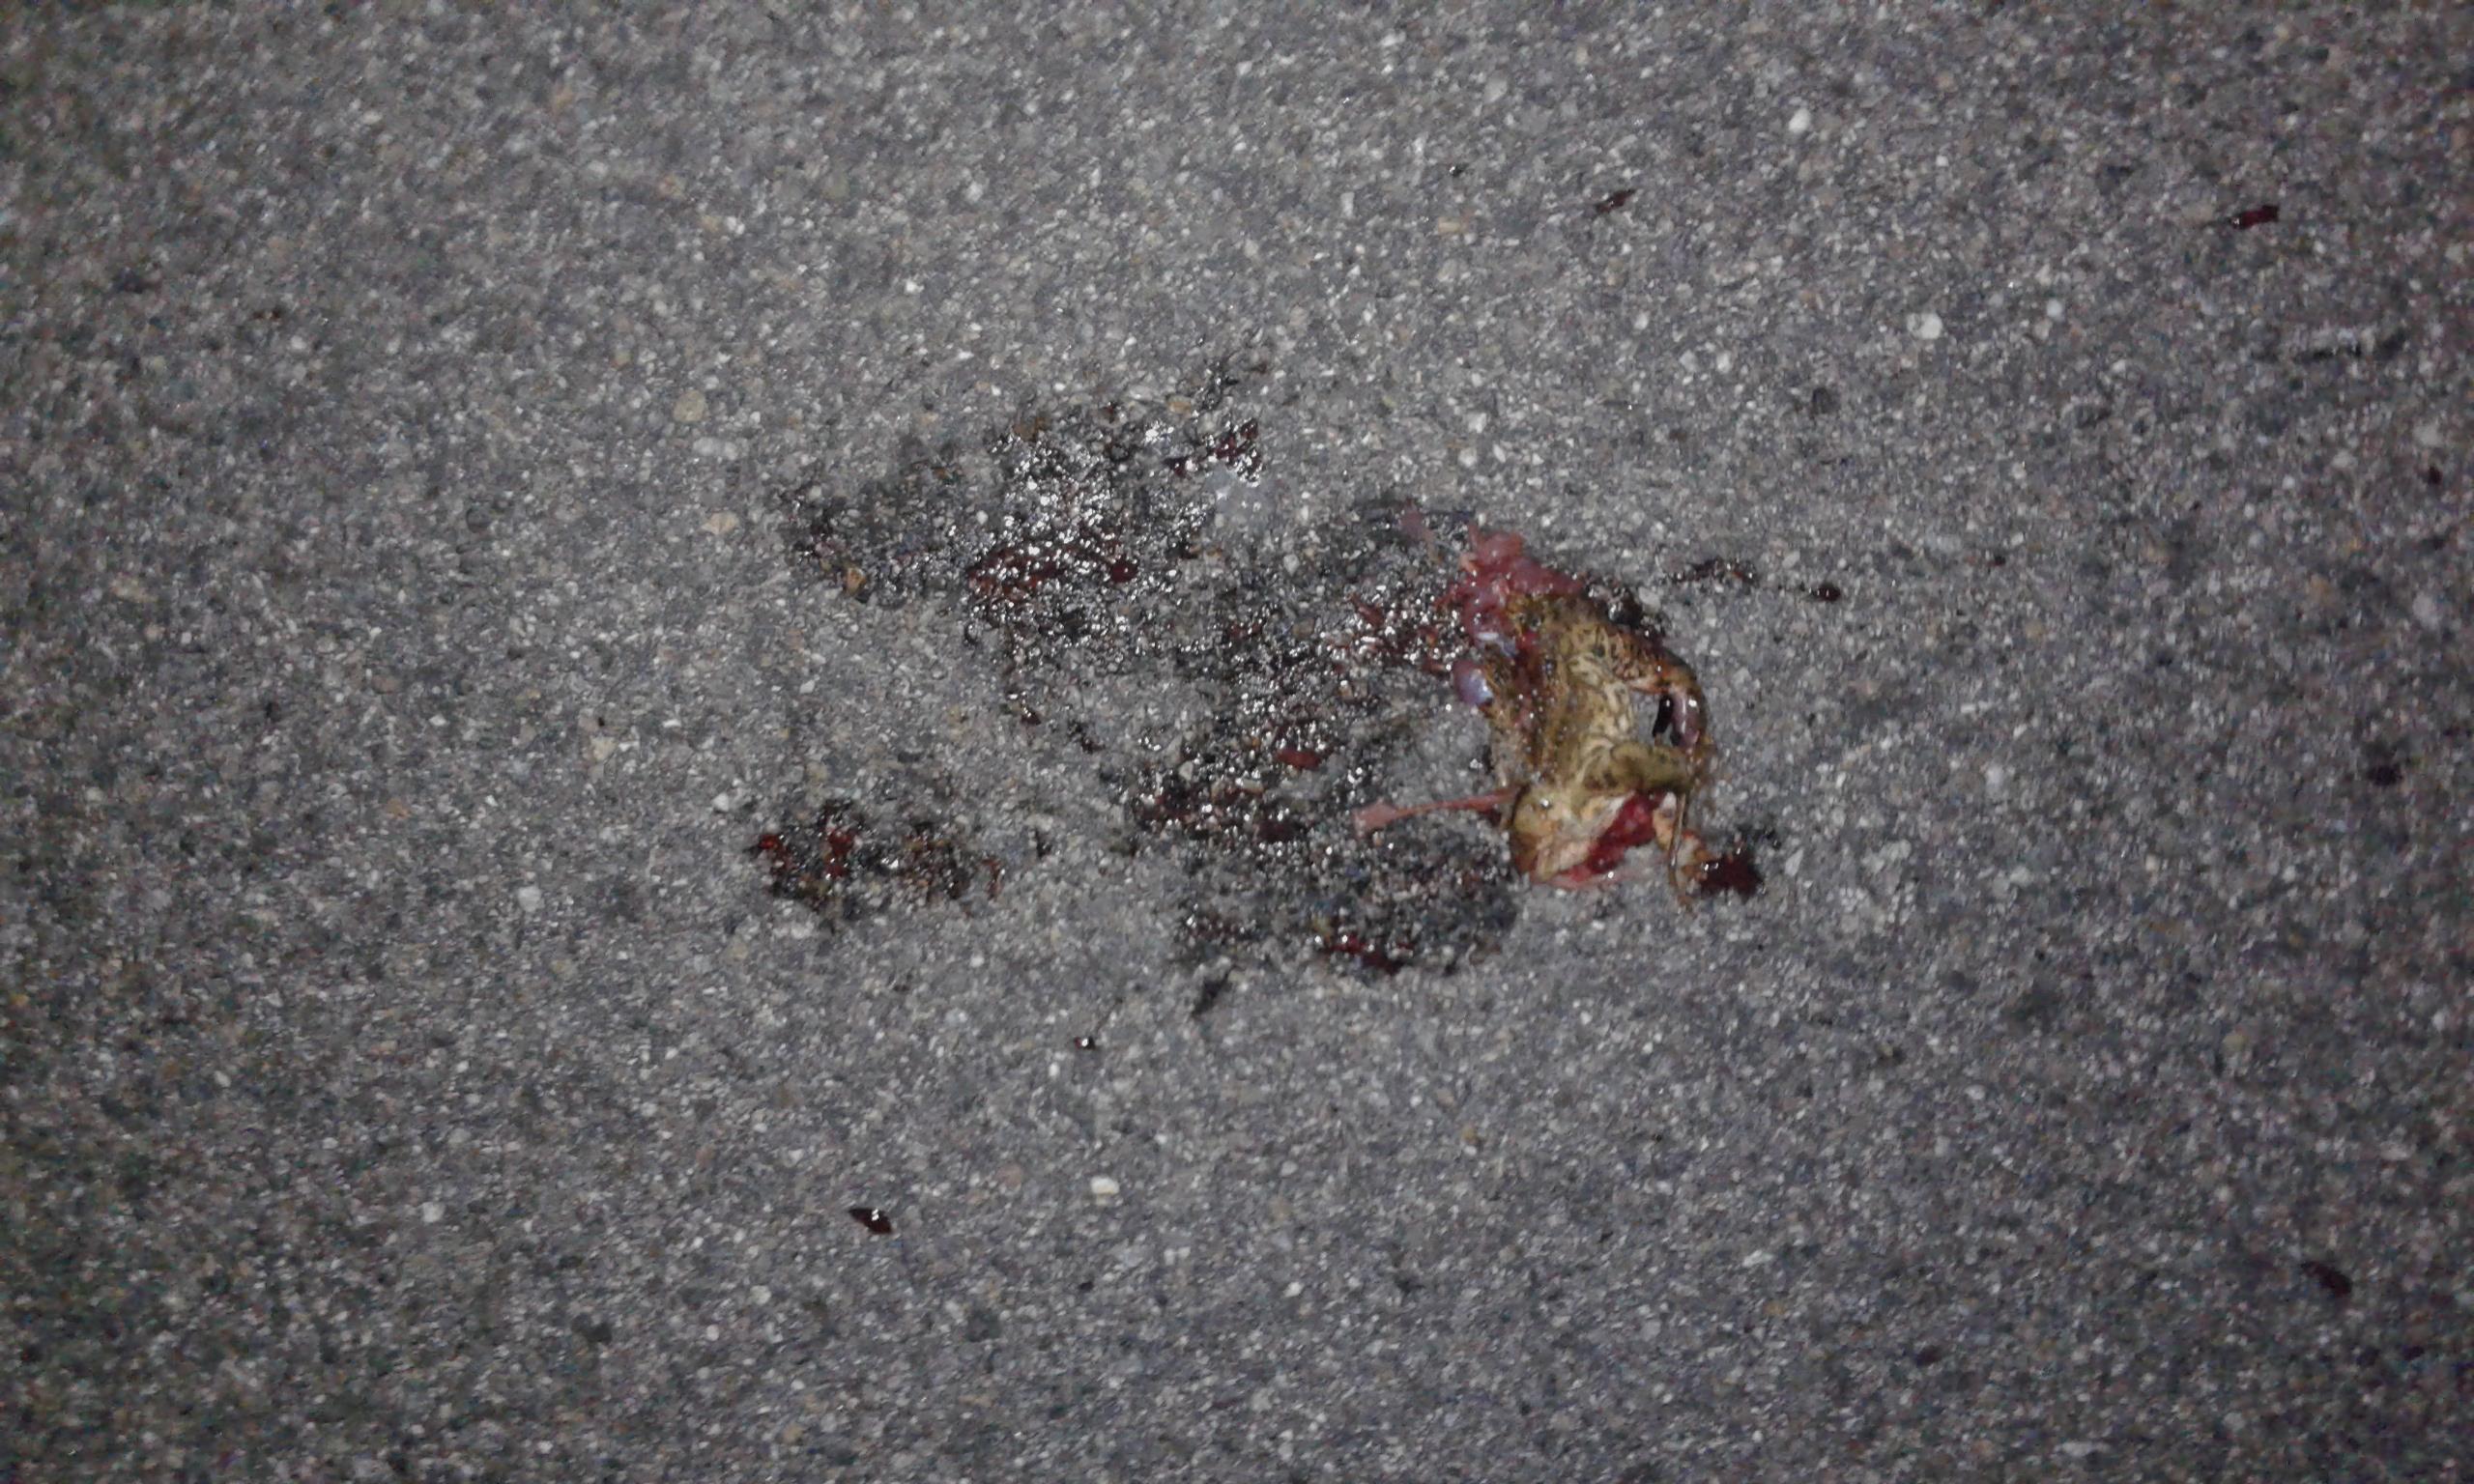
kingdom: Animalia
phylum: Chordata
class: Amphibia
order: Anura
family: Bufonidae
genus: Bufo
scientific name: Bufo bufo
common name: Common toad
